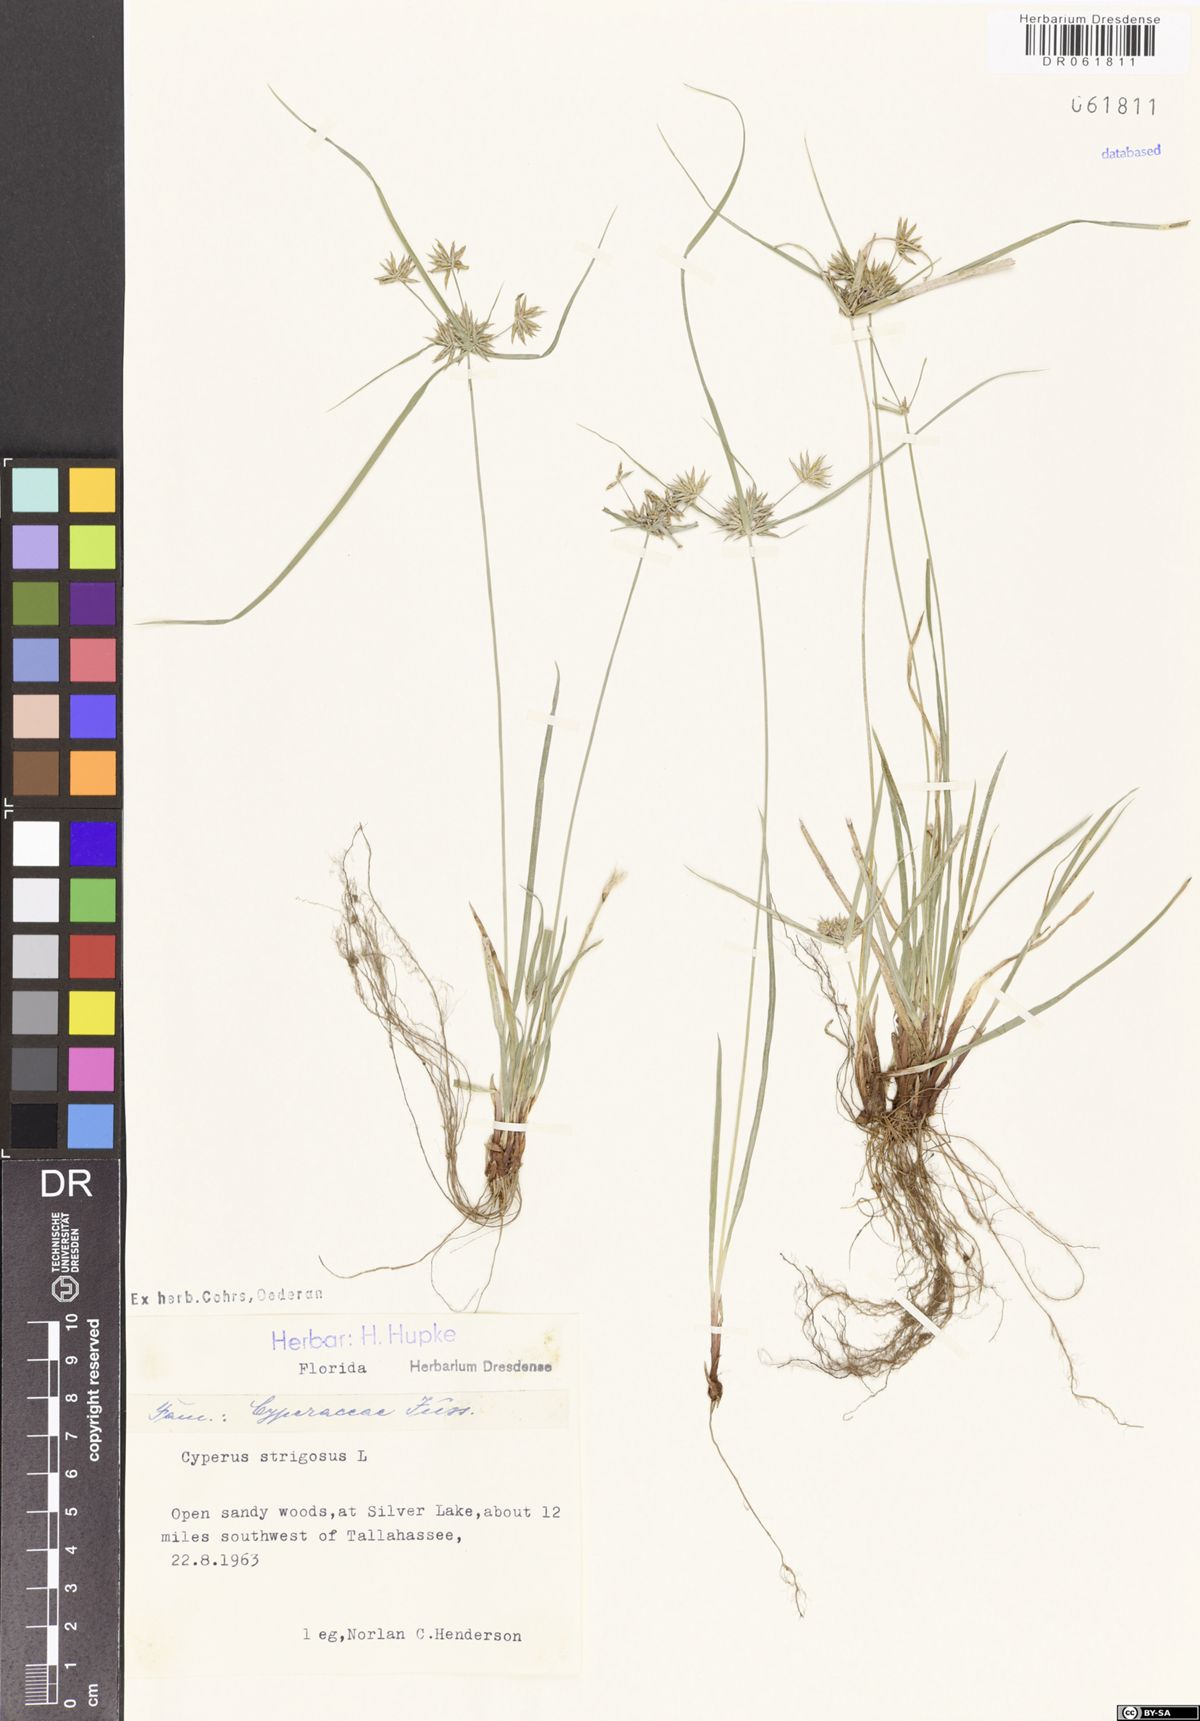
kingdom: Plantae
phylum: Tracheophyta
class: Liliopsida
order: Poales
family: Cyperaceae
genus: Cyperus
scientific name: Cyperus strigosus
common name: False nutsedge
